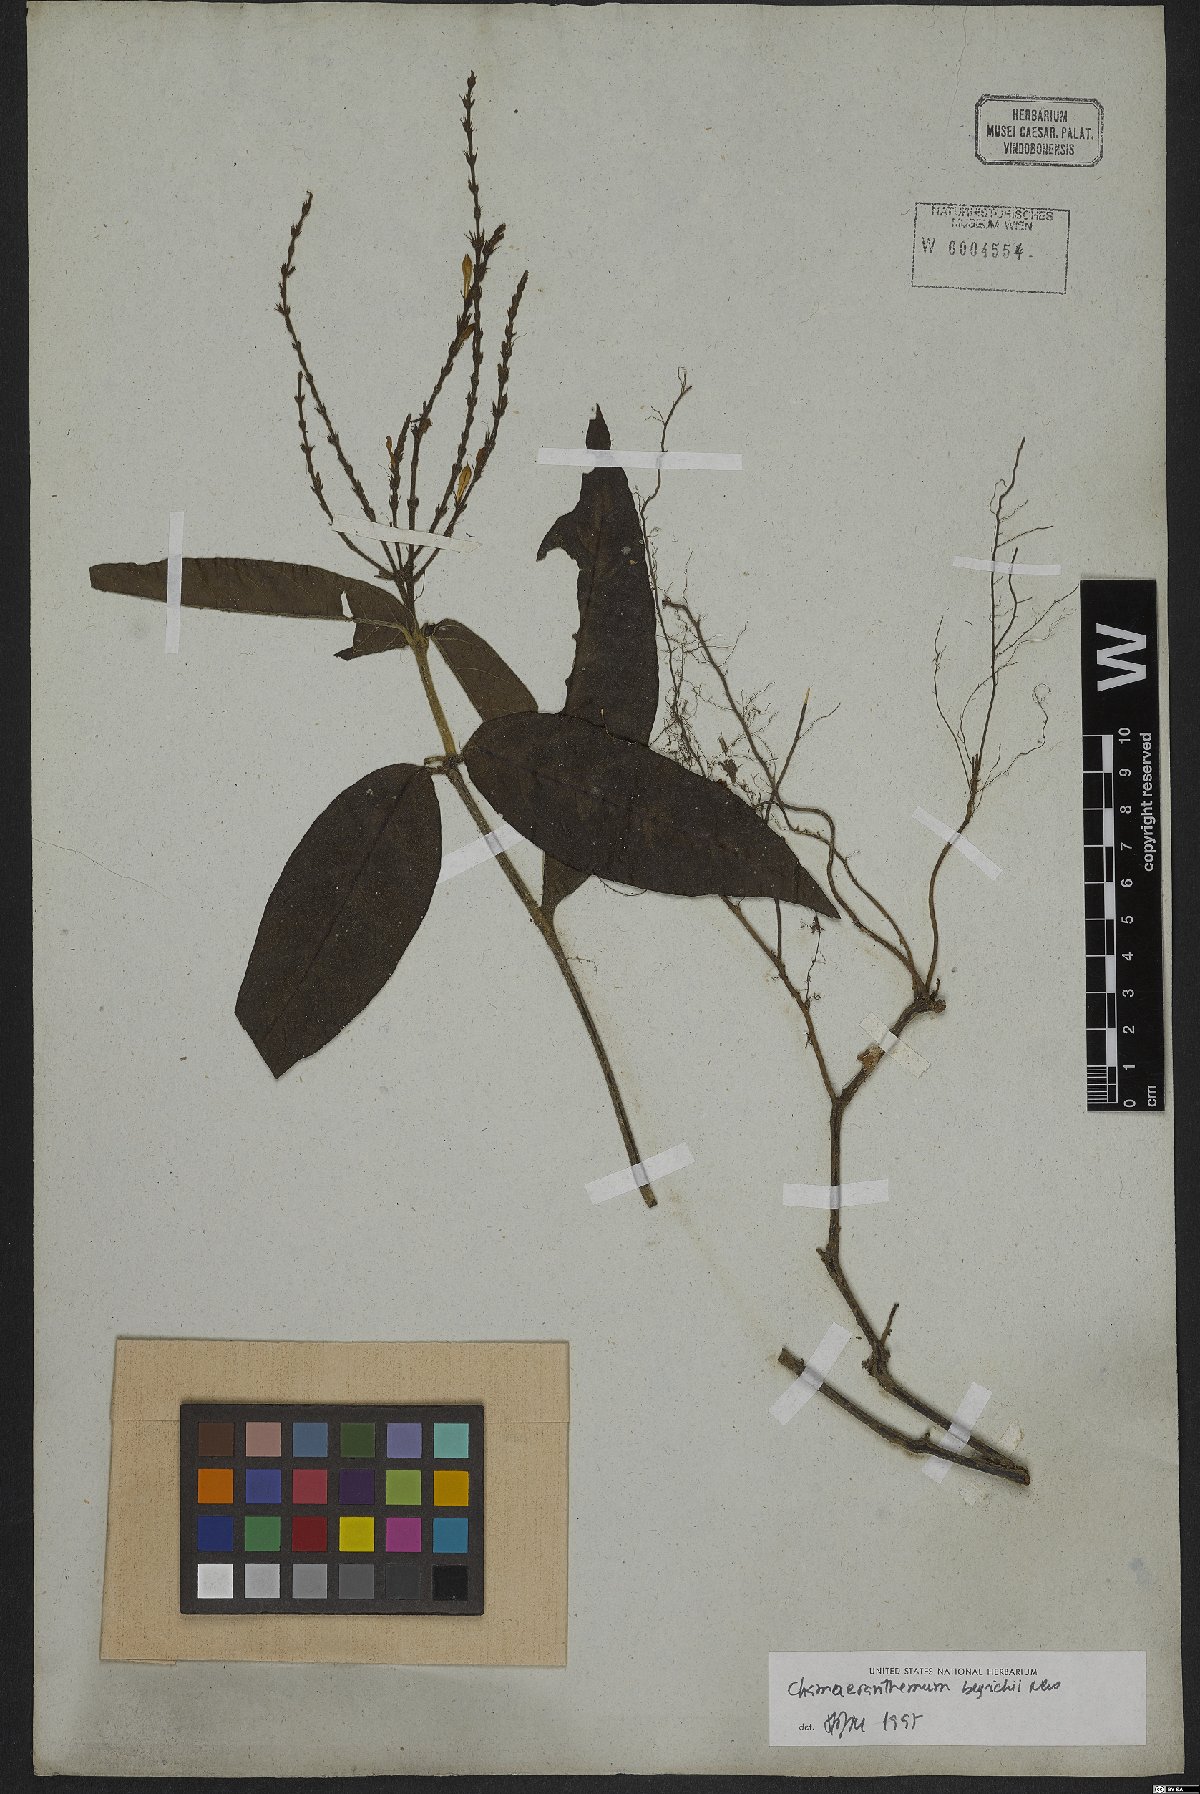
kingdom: Plantae
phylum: Tracheophyta
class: Magnoliopsida
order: Lamiales
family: Acanthaceae
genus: Chamaeranthemum
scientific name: Chamaeranthemum beyrichii
